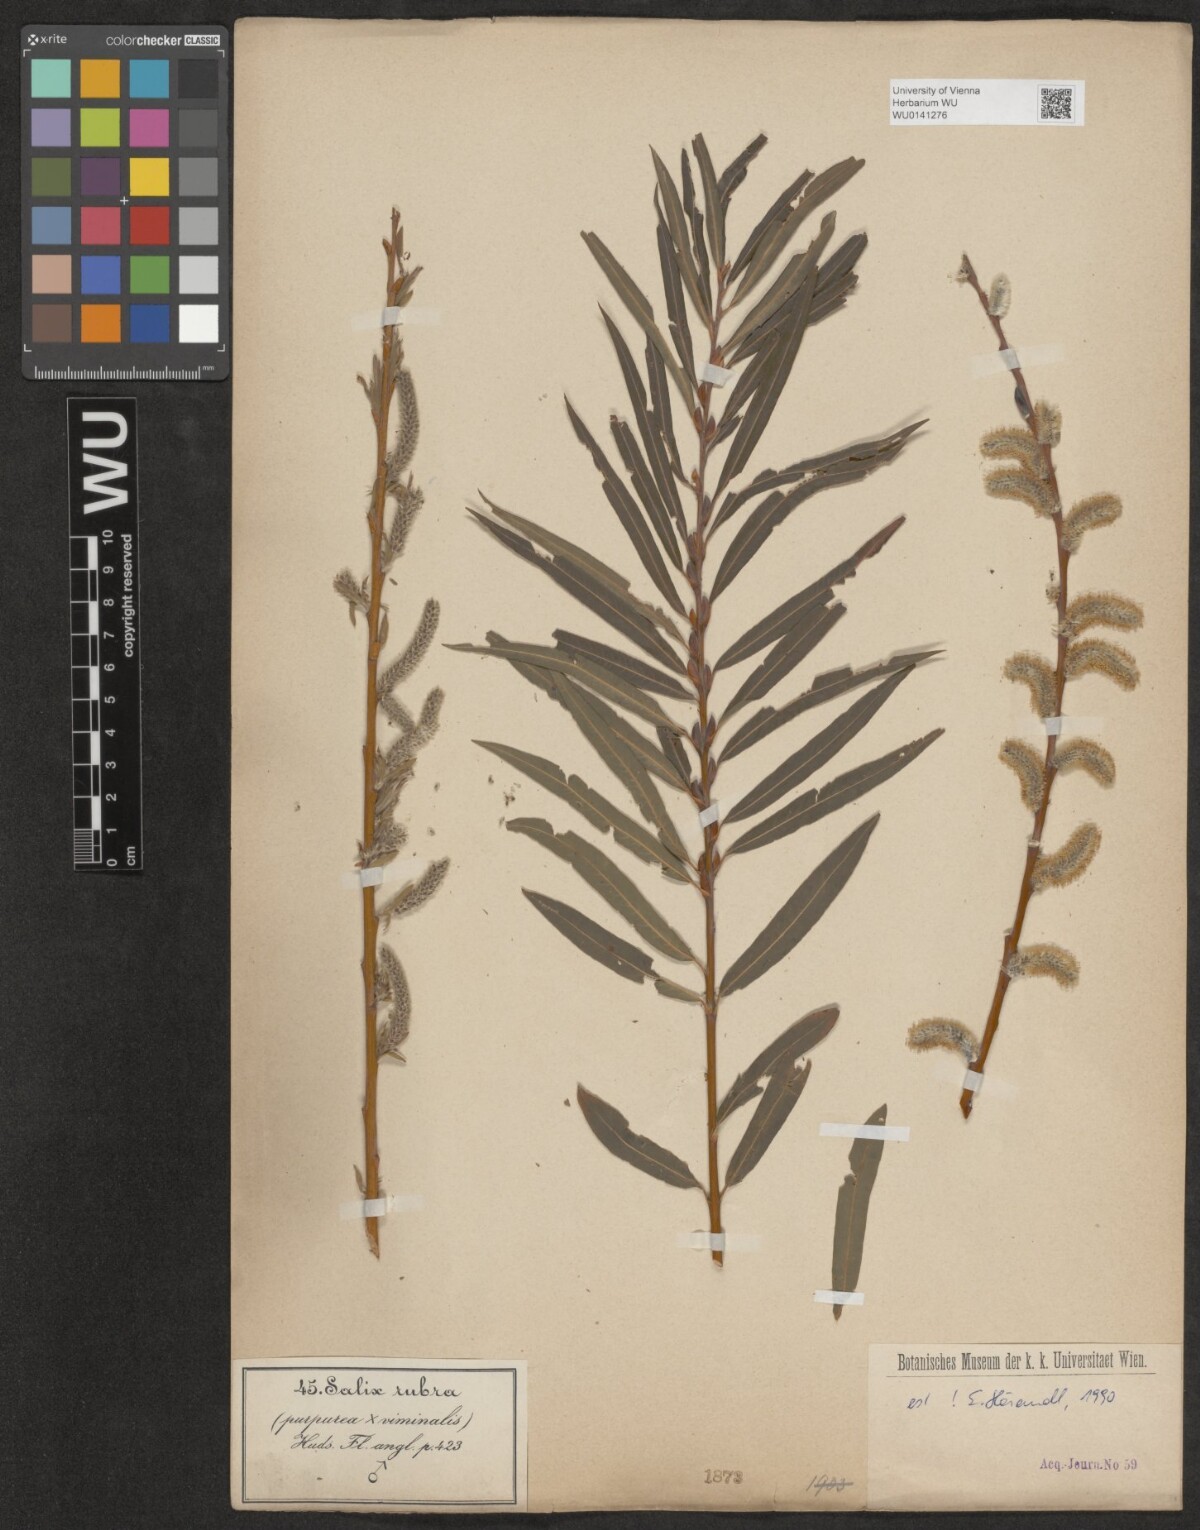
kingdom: Plantae
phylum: Tracheophyta
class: Magnoliopsida
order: Malpighiales
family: Salicaceae
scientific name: Salicaceae
